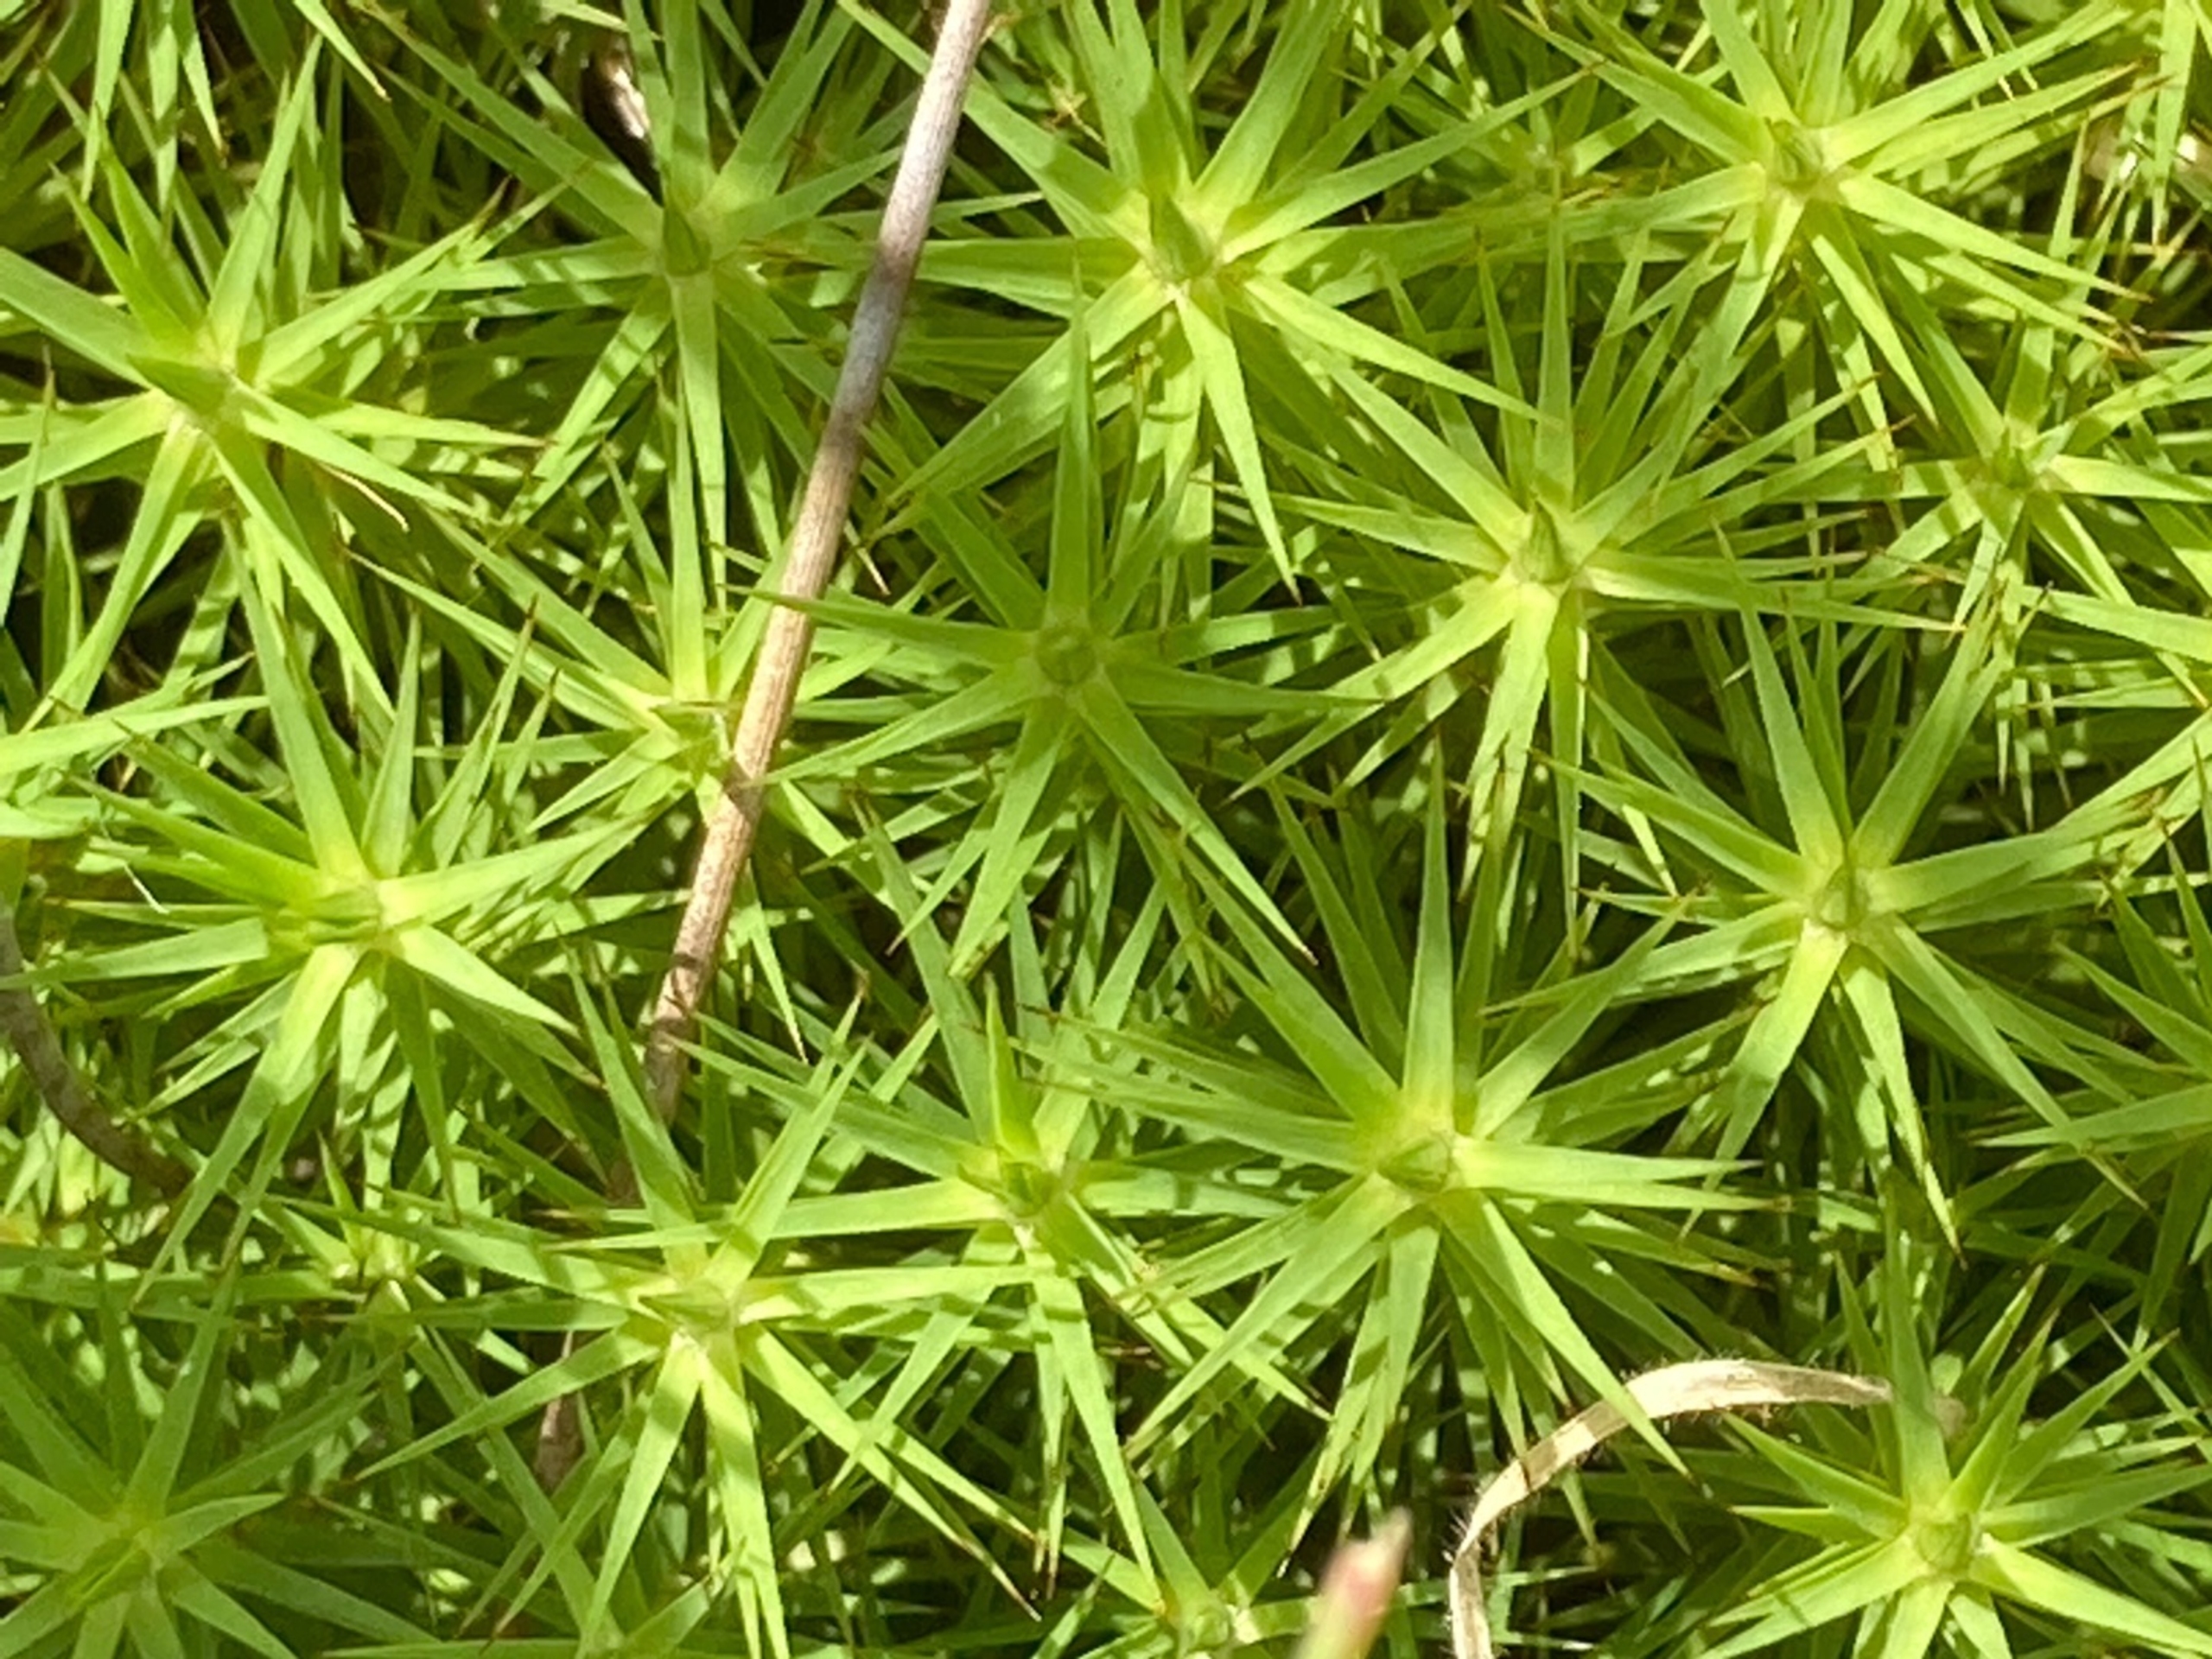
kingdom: Plantae
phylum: Bryophyta
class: Polytrichopsida
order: Polytrichales
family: Polytrichaceae
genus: Polytrichum
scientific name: Polytrichum
